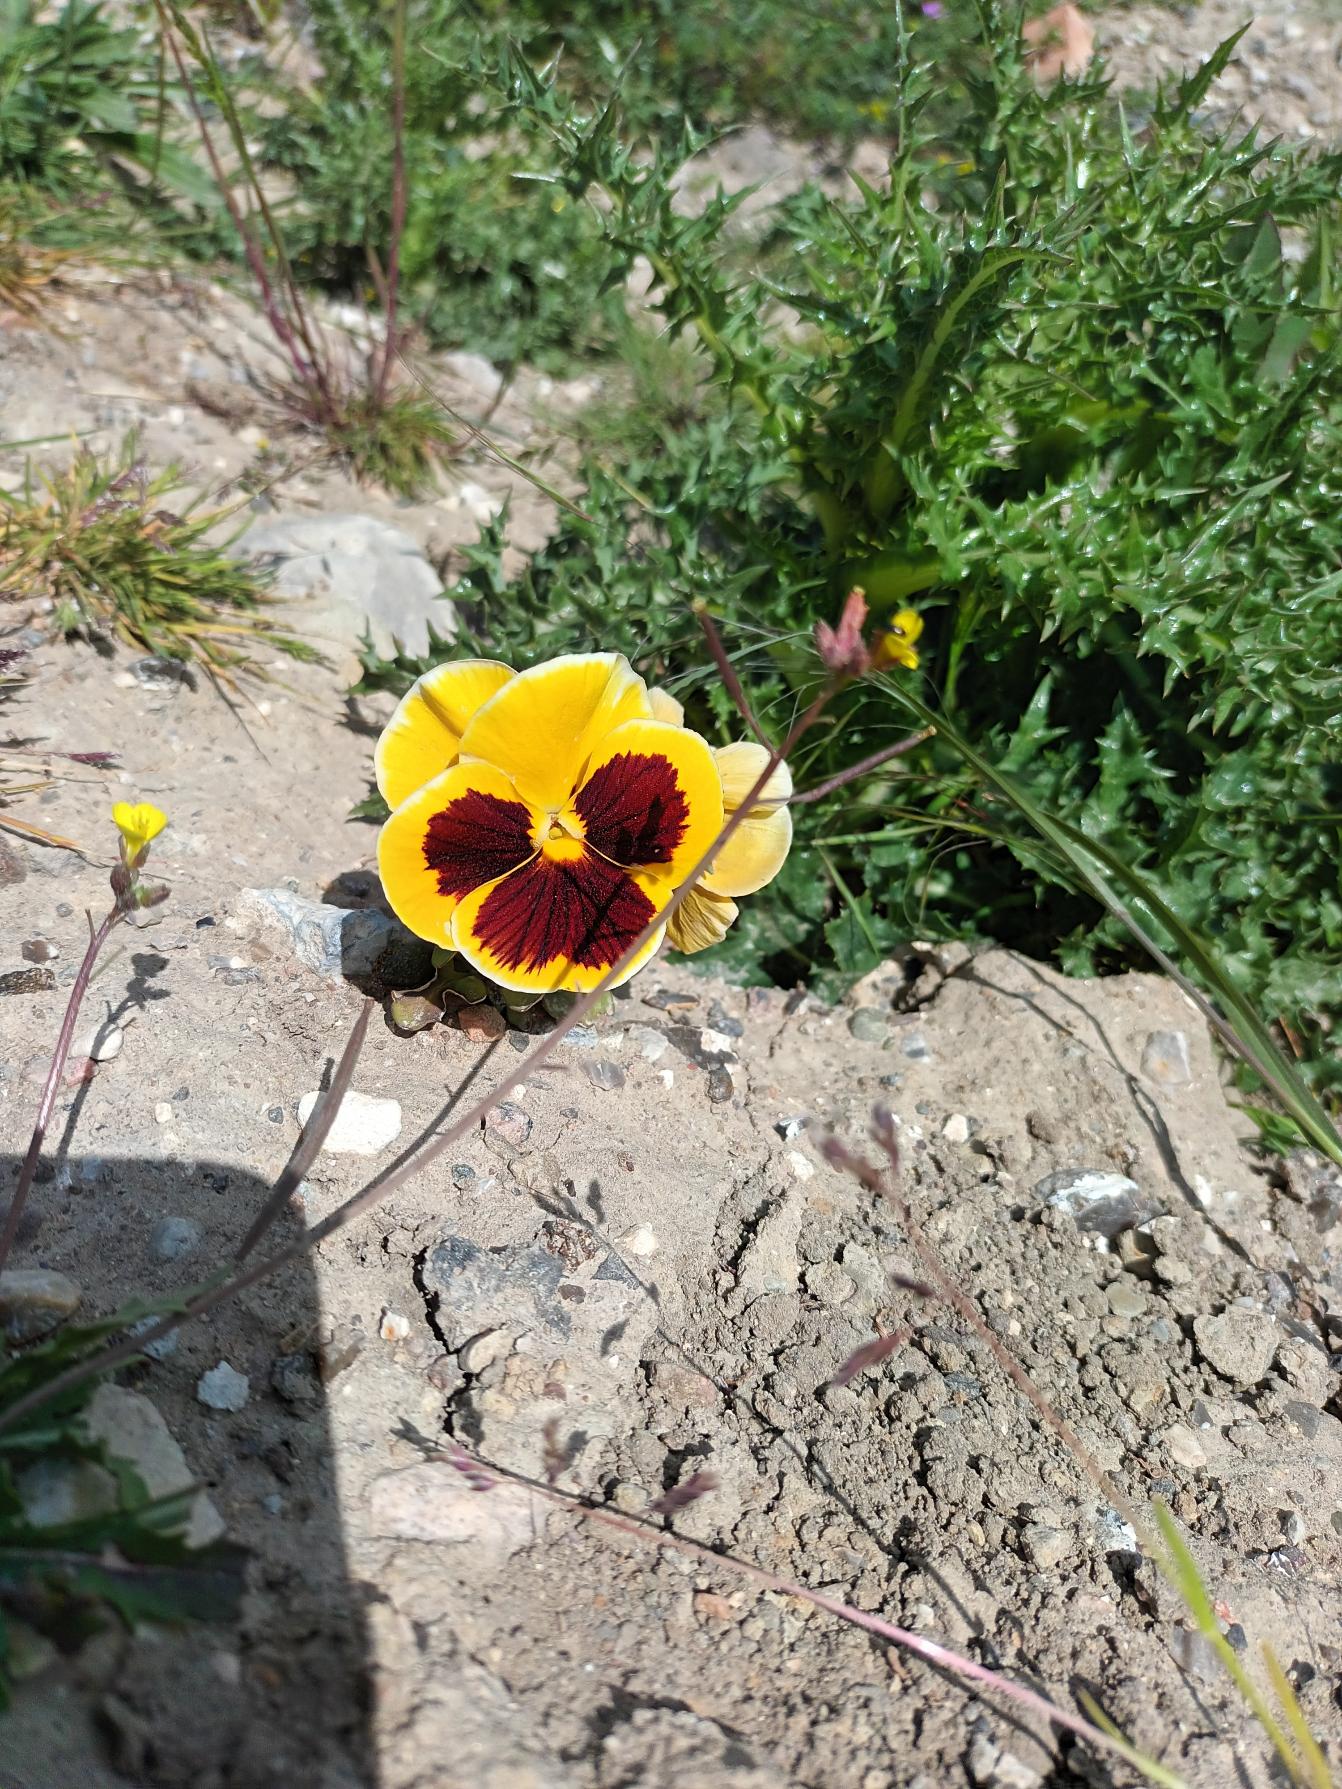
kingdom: Plantae
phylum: Tracheophyta
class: Magnoliopsida
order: Malpighiales
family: Violaceae
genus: Viola
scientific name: Viola wittrockiana
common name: Have-stedmoderblomst
